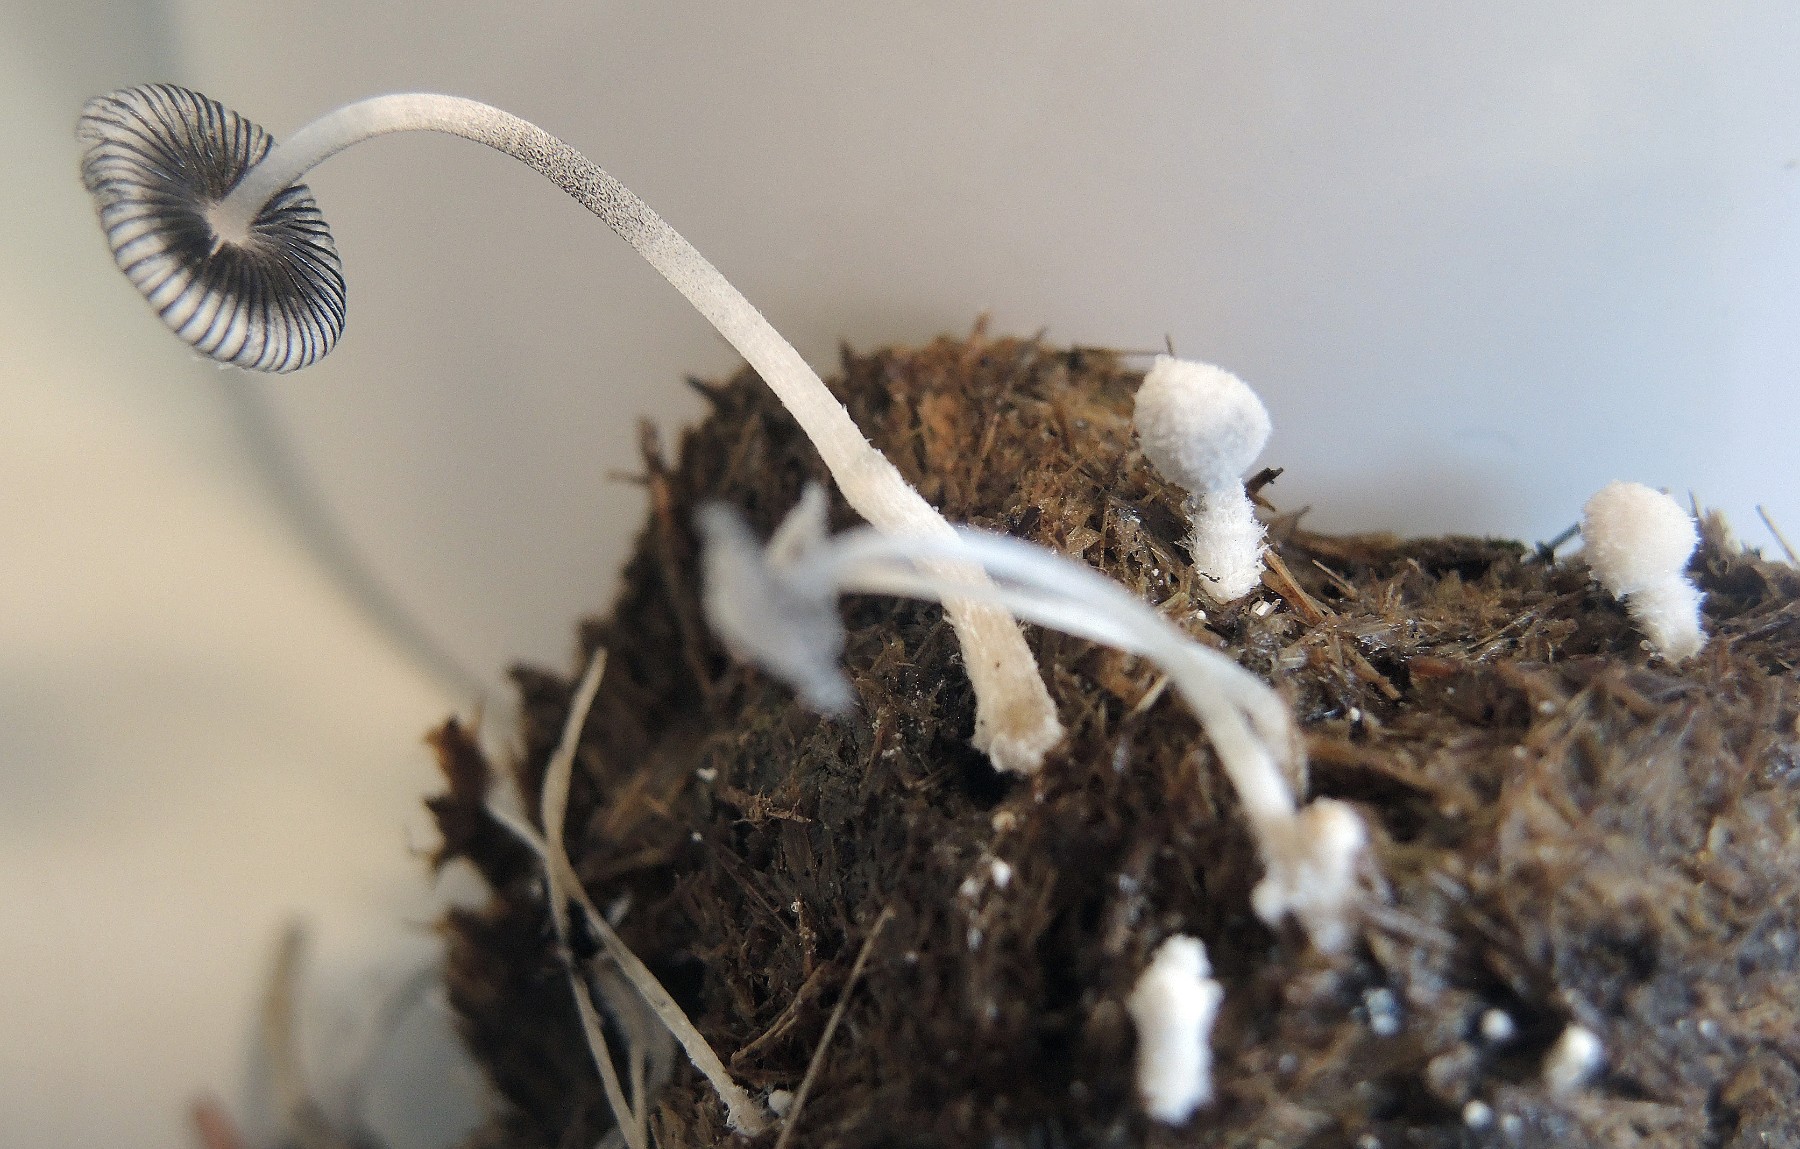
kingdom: Fungi
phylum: Basidiomycota
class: Agaricomycetes
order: Agaricales
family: Psathyrellaceae
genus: Coprinopsis
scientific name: Coprinopsis nivea
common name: snehvid blækhat
